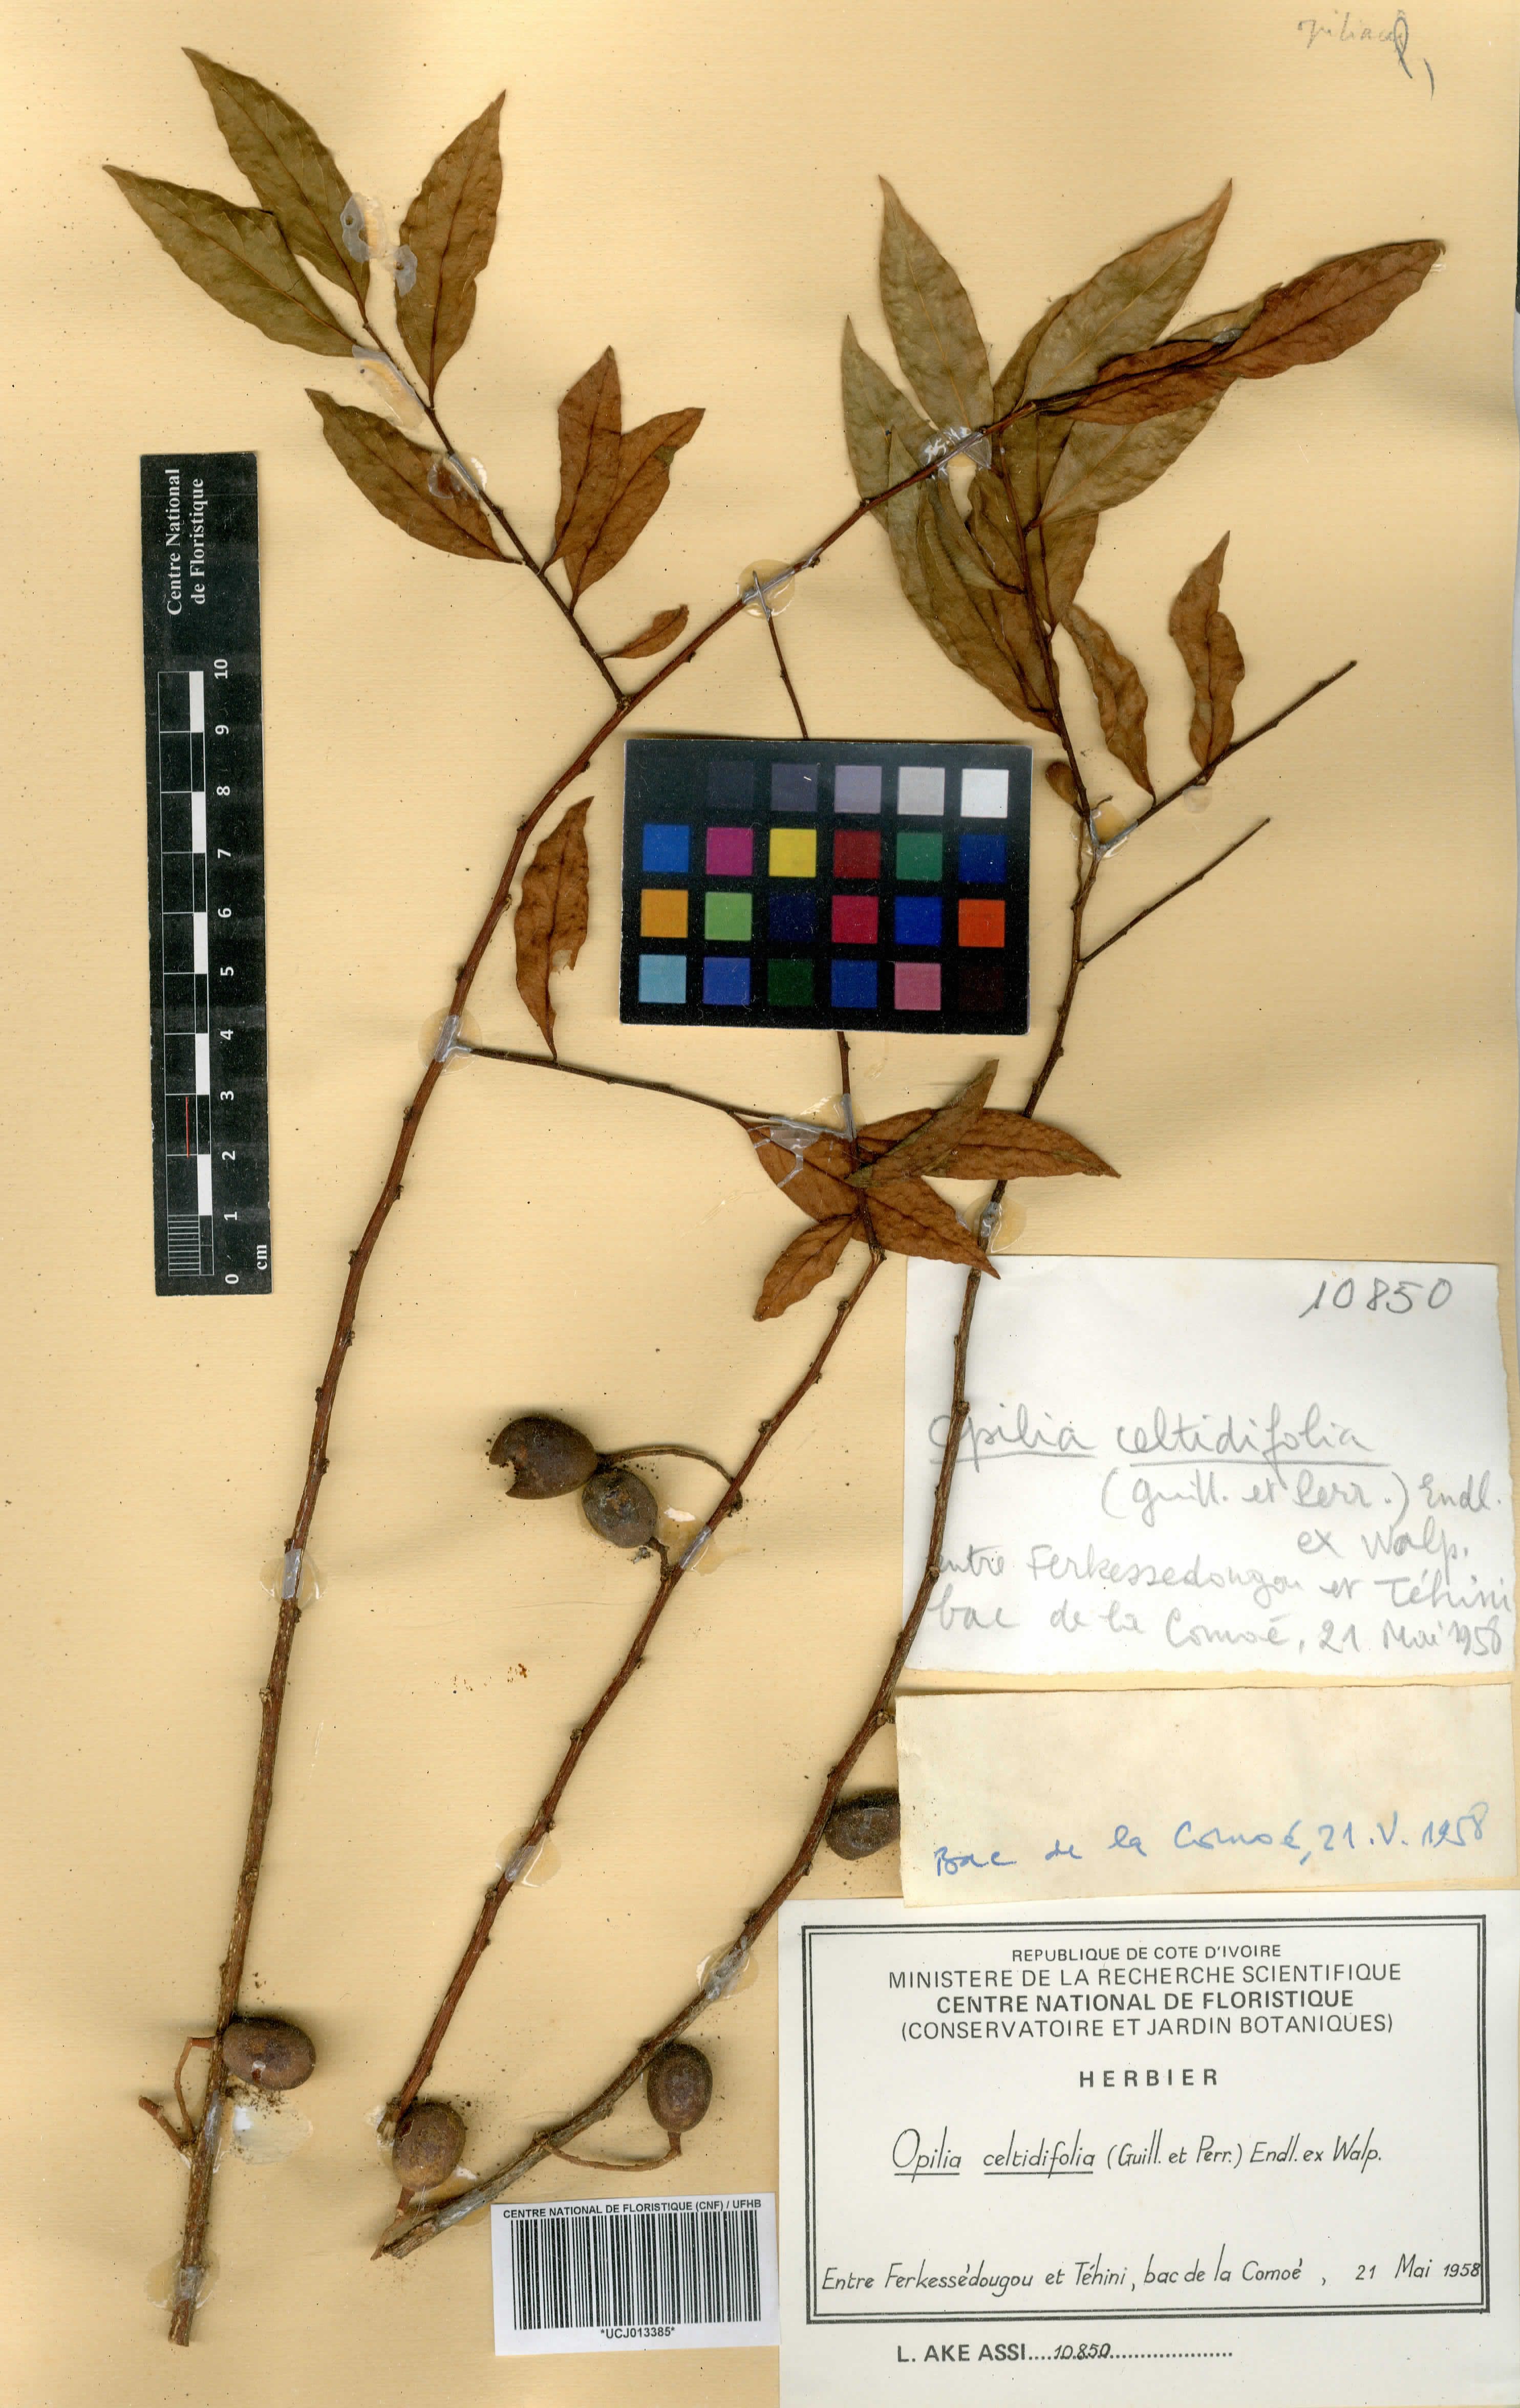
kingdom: Plantae
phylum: Tracheophyta
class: Magnoliopsida
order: Santalales
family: Opiliaceae
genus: Opilia
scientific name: Opilia amentacea
